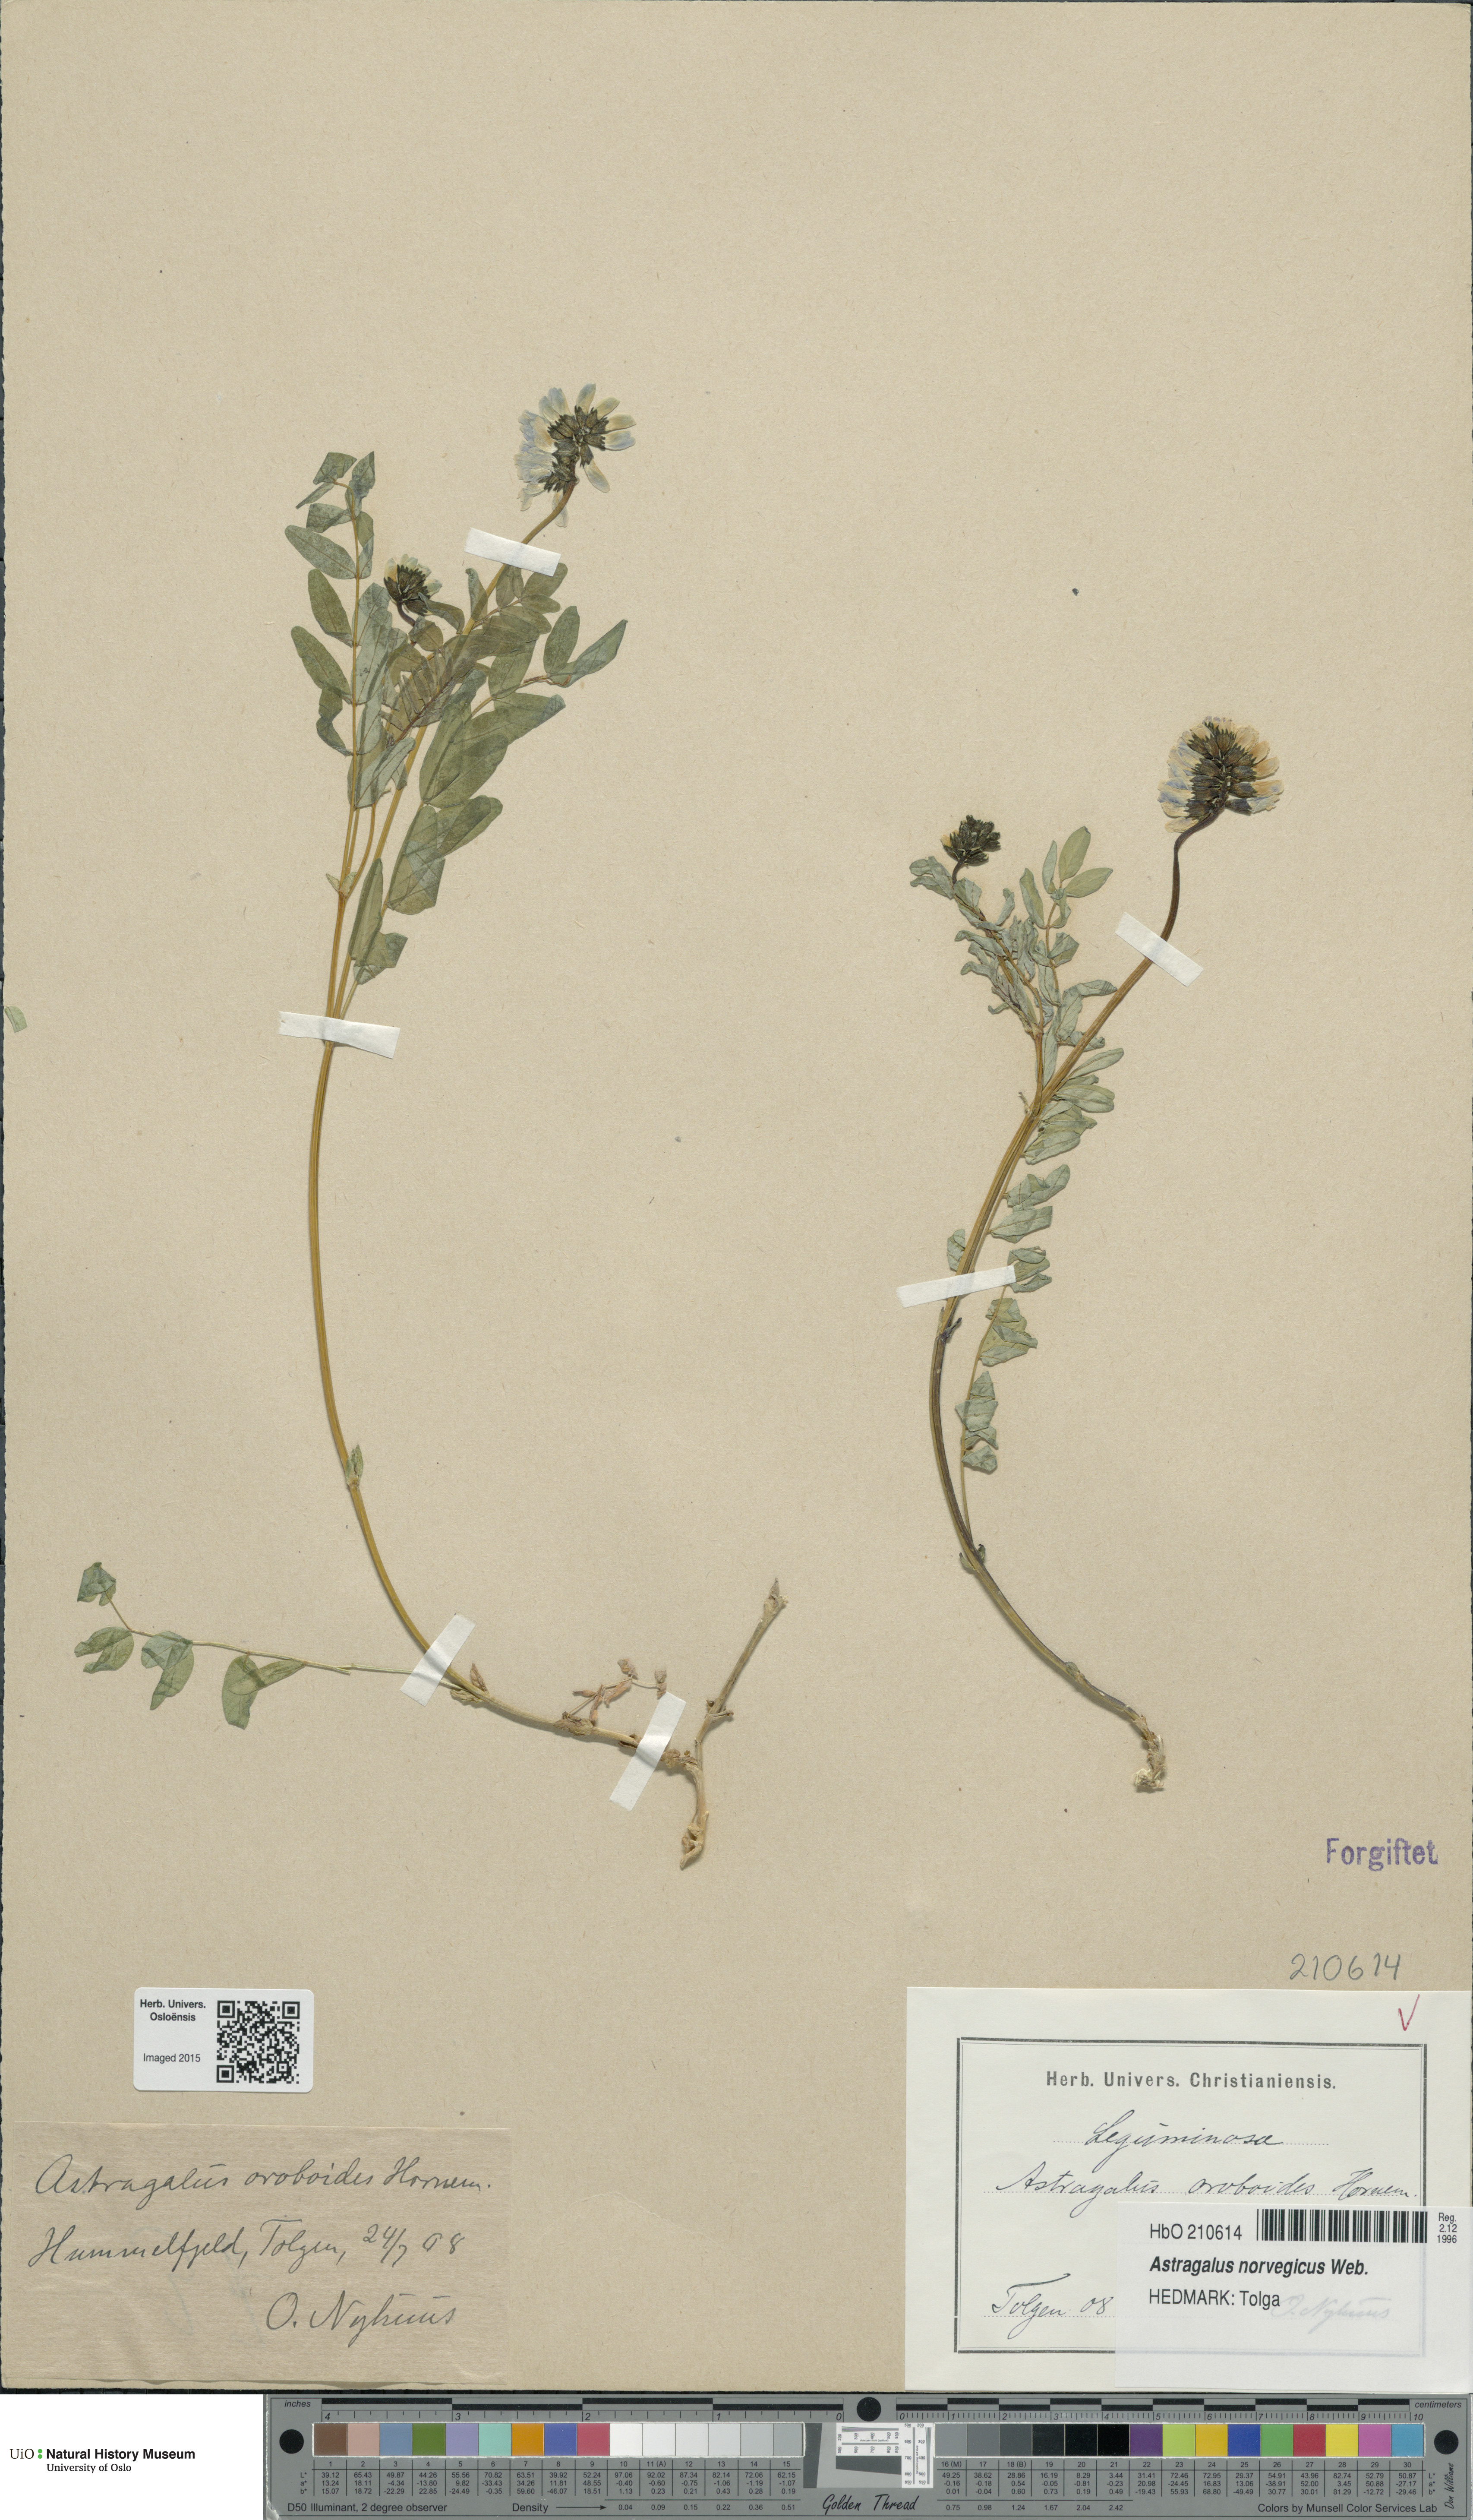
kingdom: Plantae
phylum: Tracheophyta
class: Magnoliopsida
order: Fabales
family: Fabaceae
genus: Astragalus
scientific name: Astragalus norvegicus
